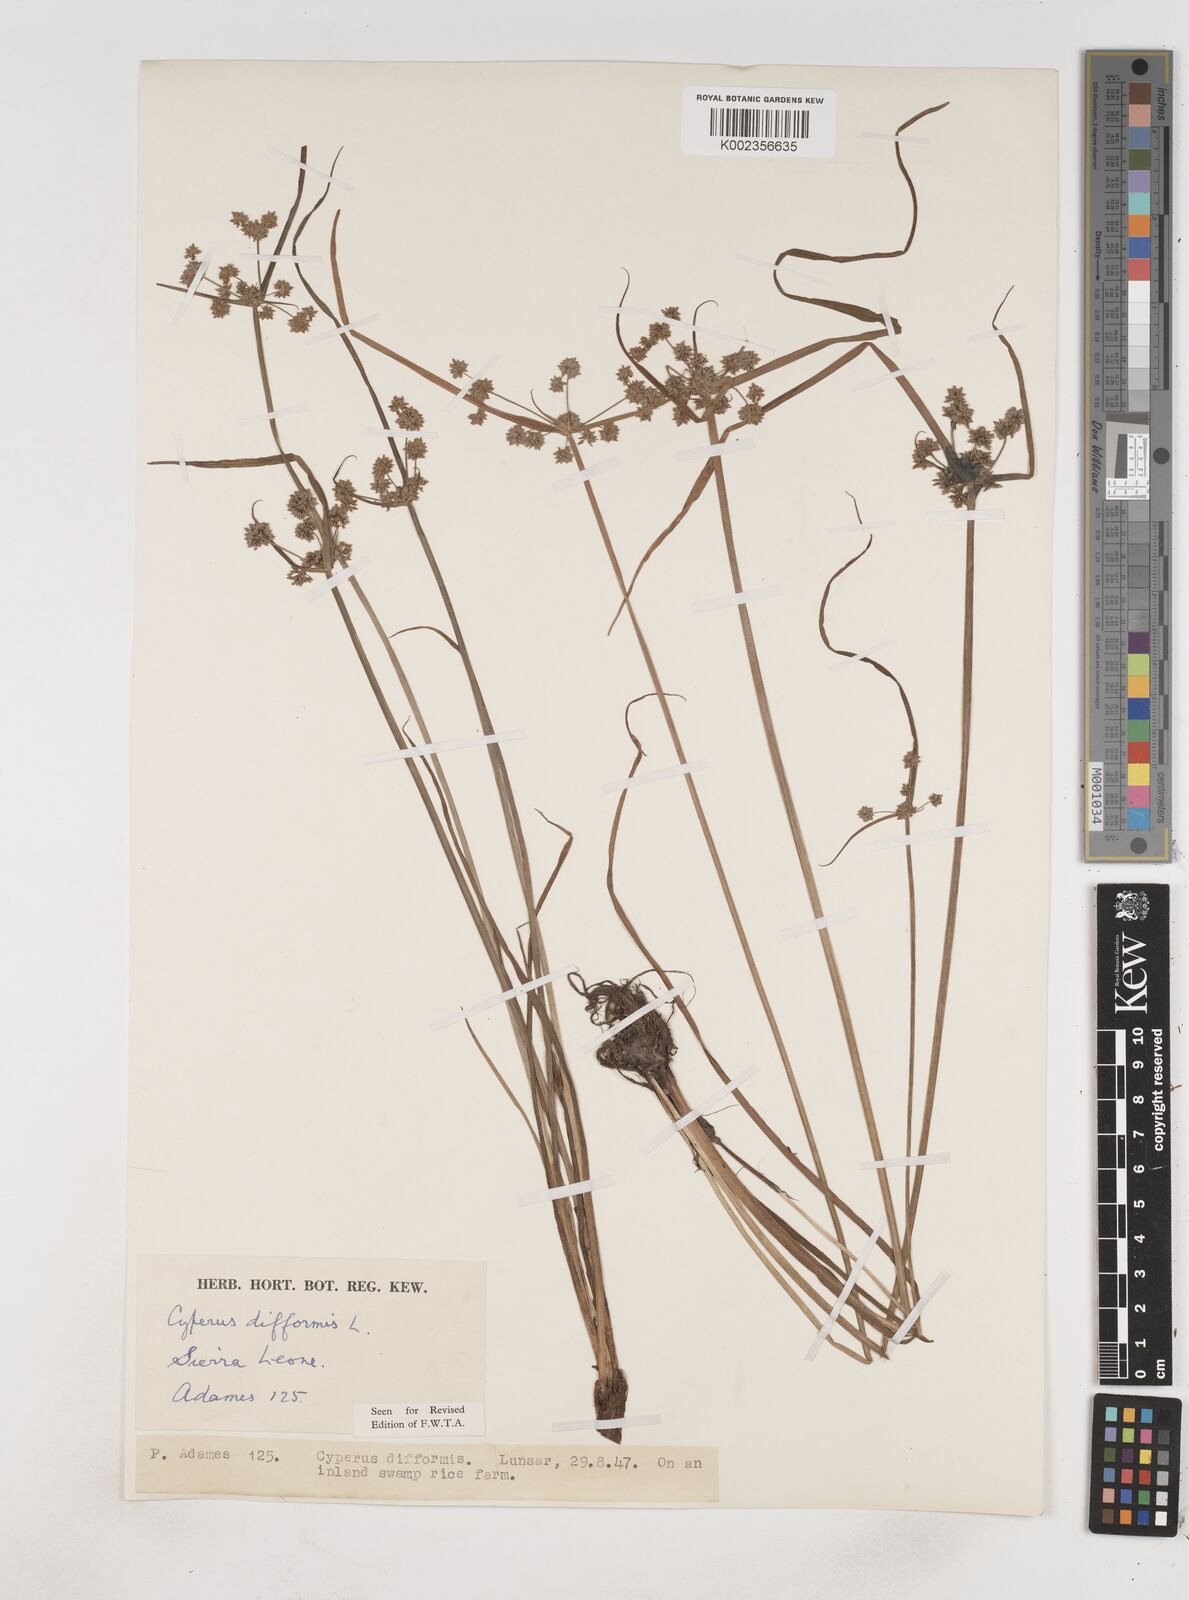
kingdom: Plantae
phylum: Tracheophyta
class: Liliopsida
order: Poales
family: Cyperaceae
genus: Cyperus
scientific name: Cyperus difformis
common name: Variable flatsedge
